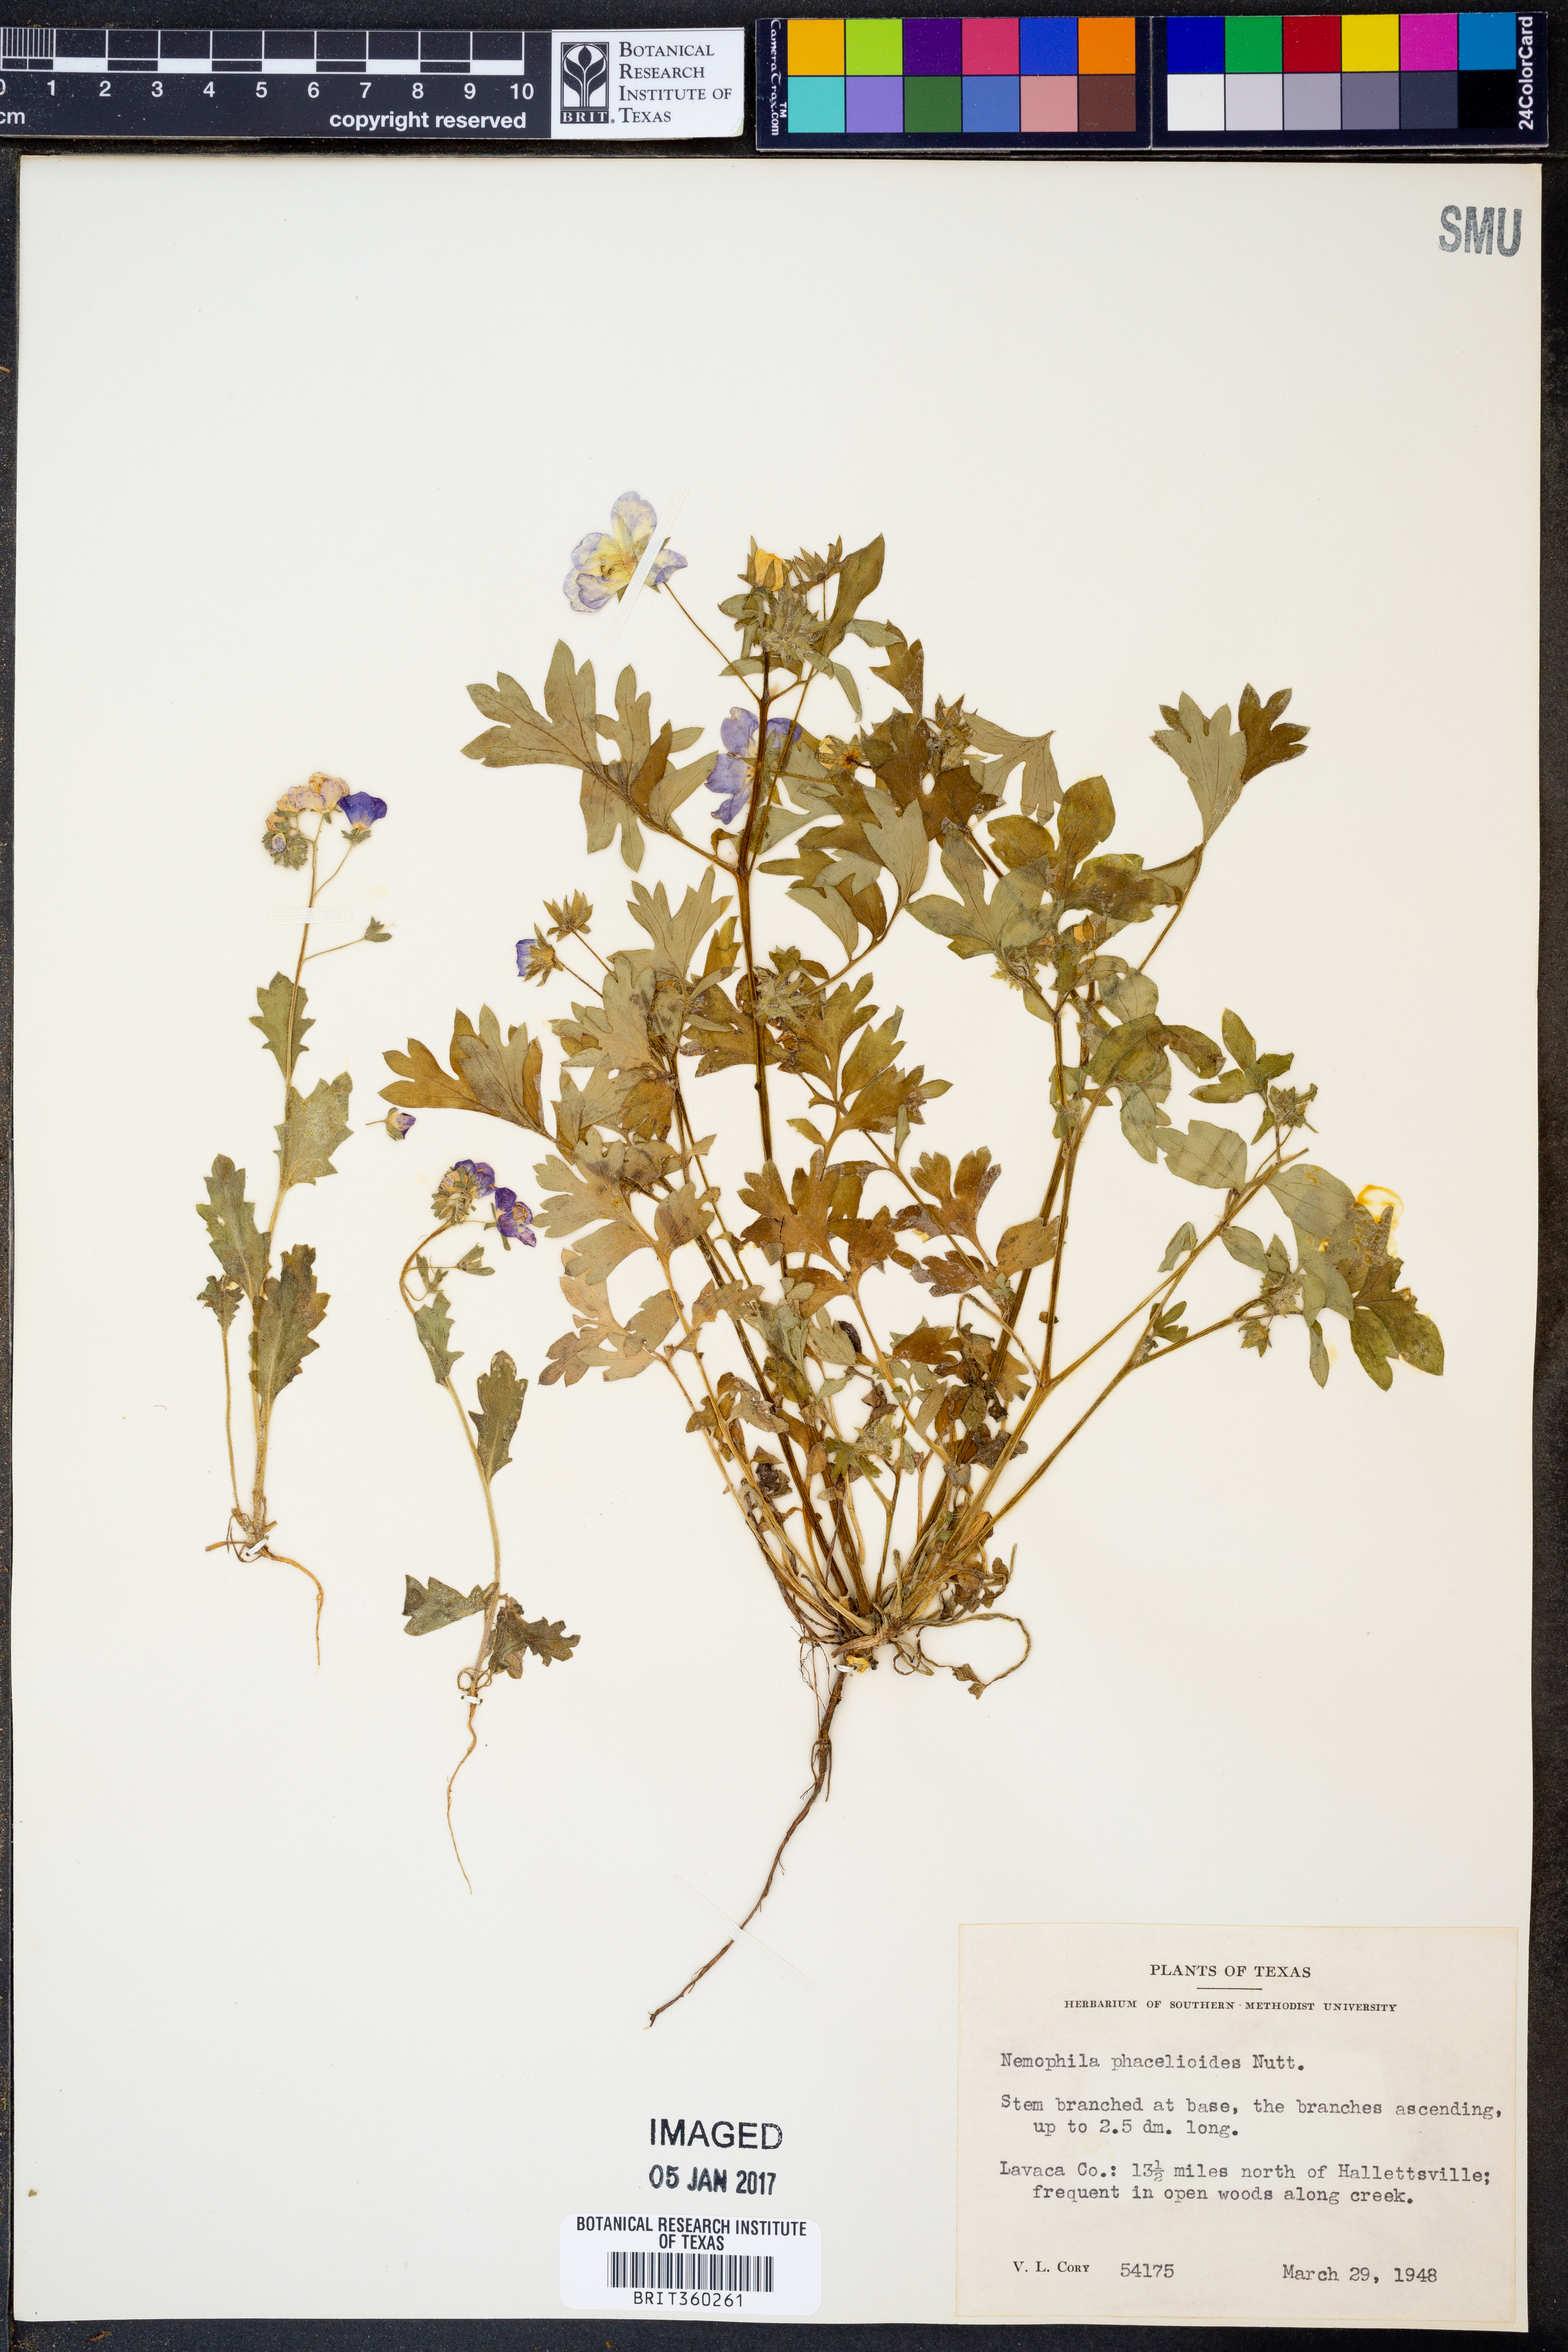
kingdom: Plantae
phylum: Tracheophyta
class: Magnoliopsida
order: Boraginales
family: Hydrophyllaceae
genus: Nemophila
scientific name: Nemophila phacelioides
